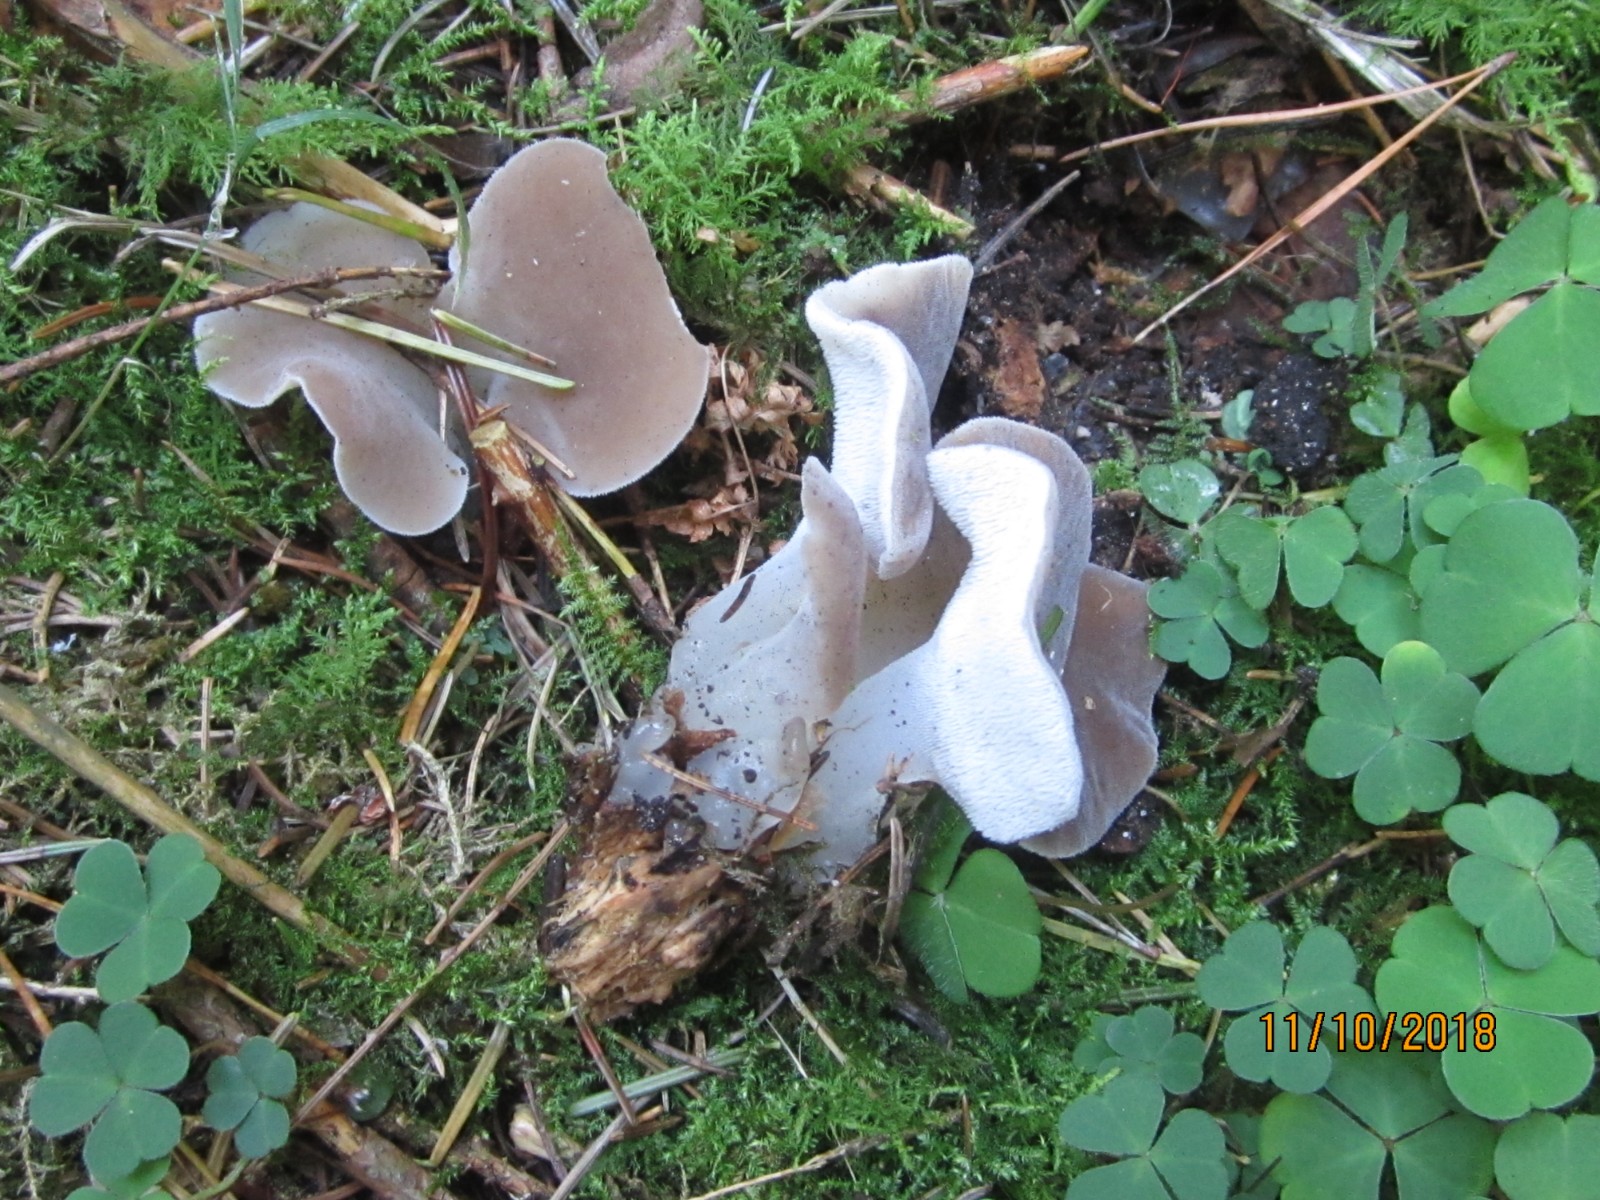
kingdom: Fungi
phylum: Basidiomycota
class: Agaricomycetes
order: Auriculariales
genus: Pseudohydnum
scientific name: Pseudohydnum gelatinosum
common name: bævretand
